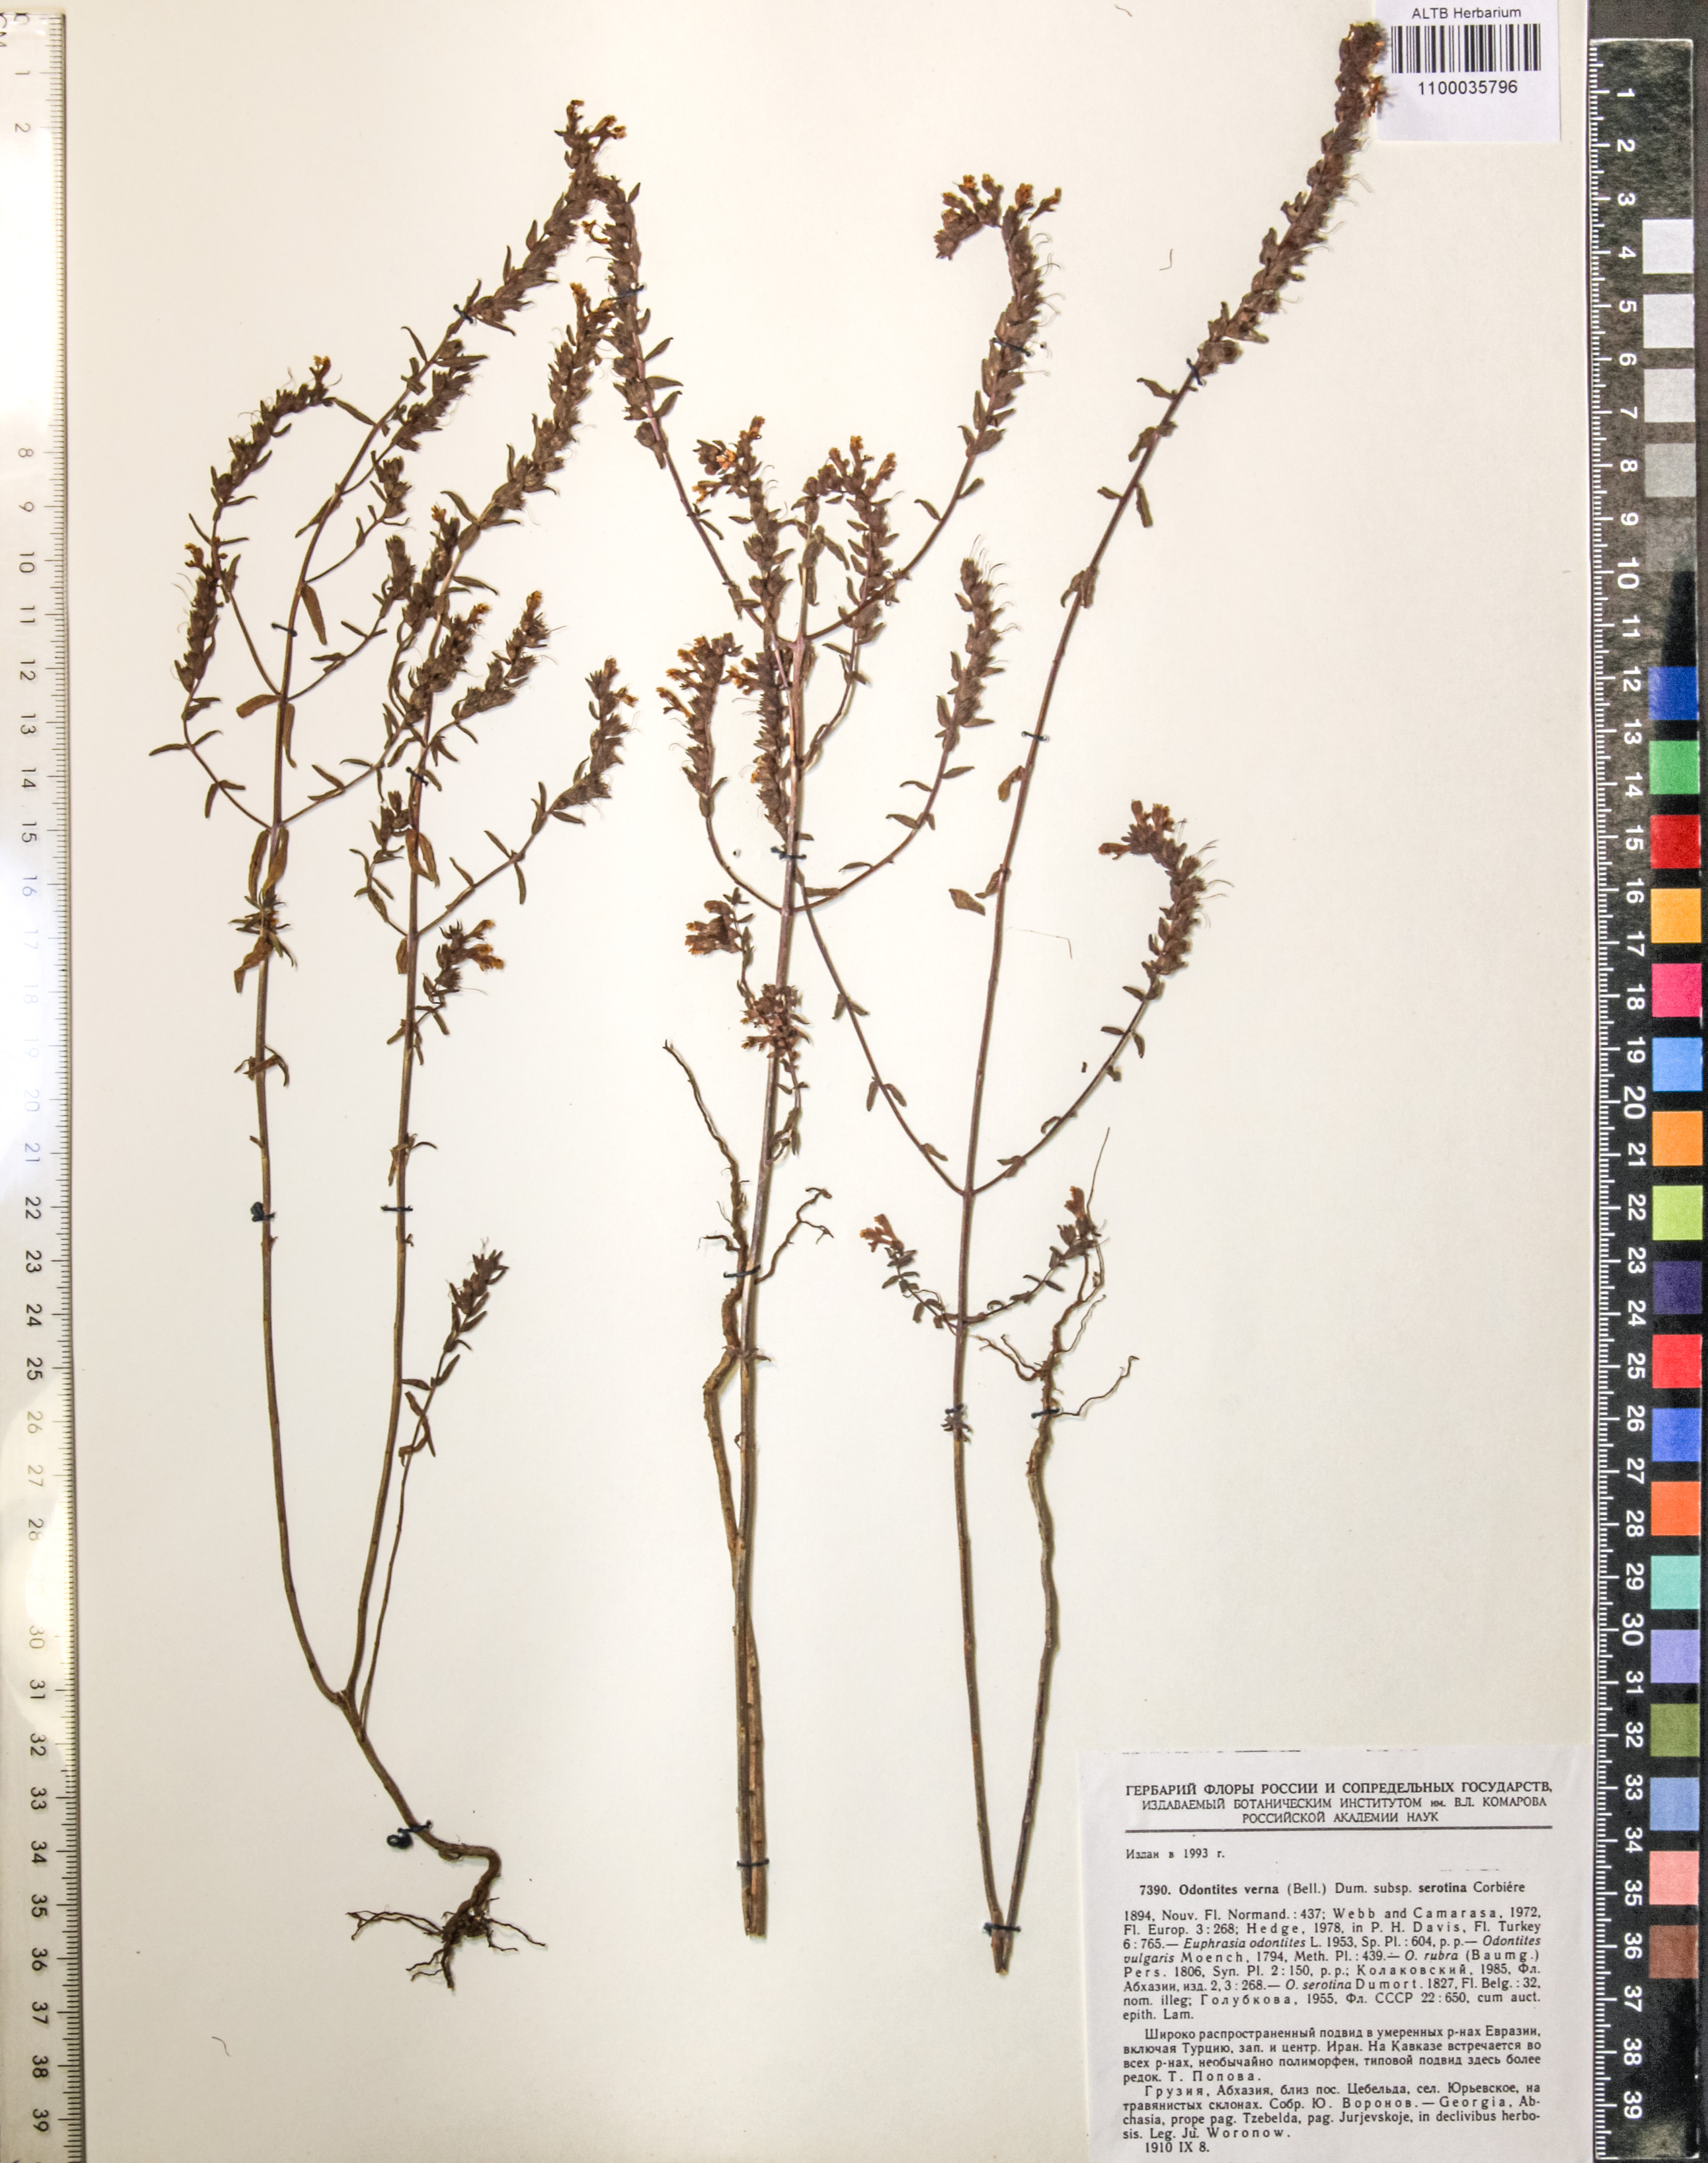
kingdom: Plantae
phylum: Tracheophyta
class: Magnoliopsida
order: Lamiales
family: Orobanchaceae
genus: Odontites
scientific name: Odontites vulgaris
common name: Broomrape
